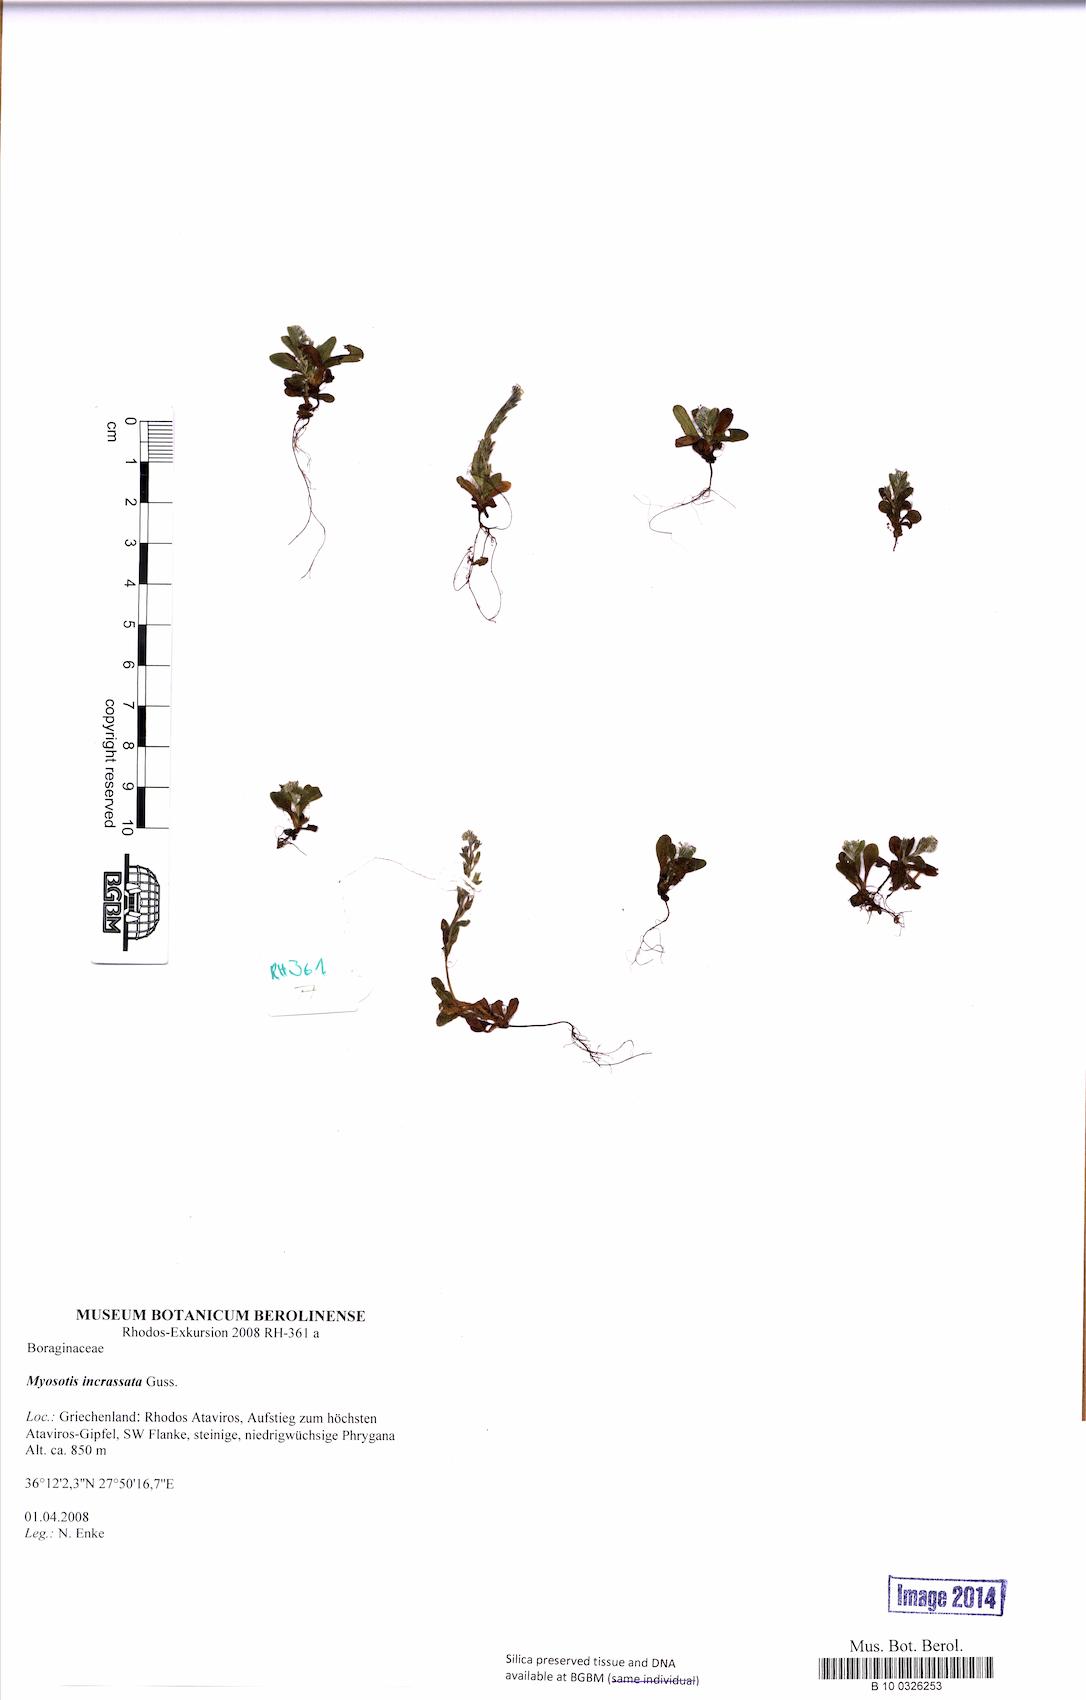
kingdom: Plantae
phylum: Tracheophyta
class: Magnoliopsida
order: Boraginales
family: Boraginaceae
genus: Myosotis
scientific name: Myosotis incrassata
